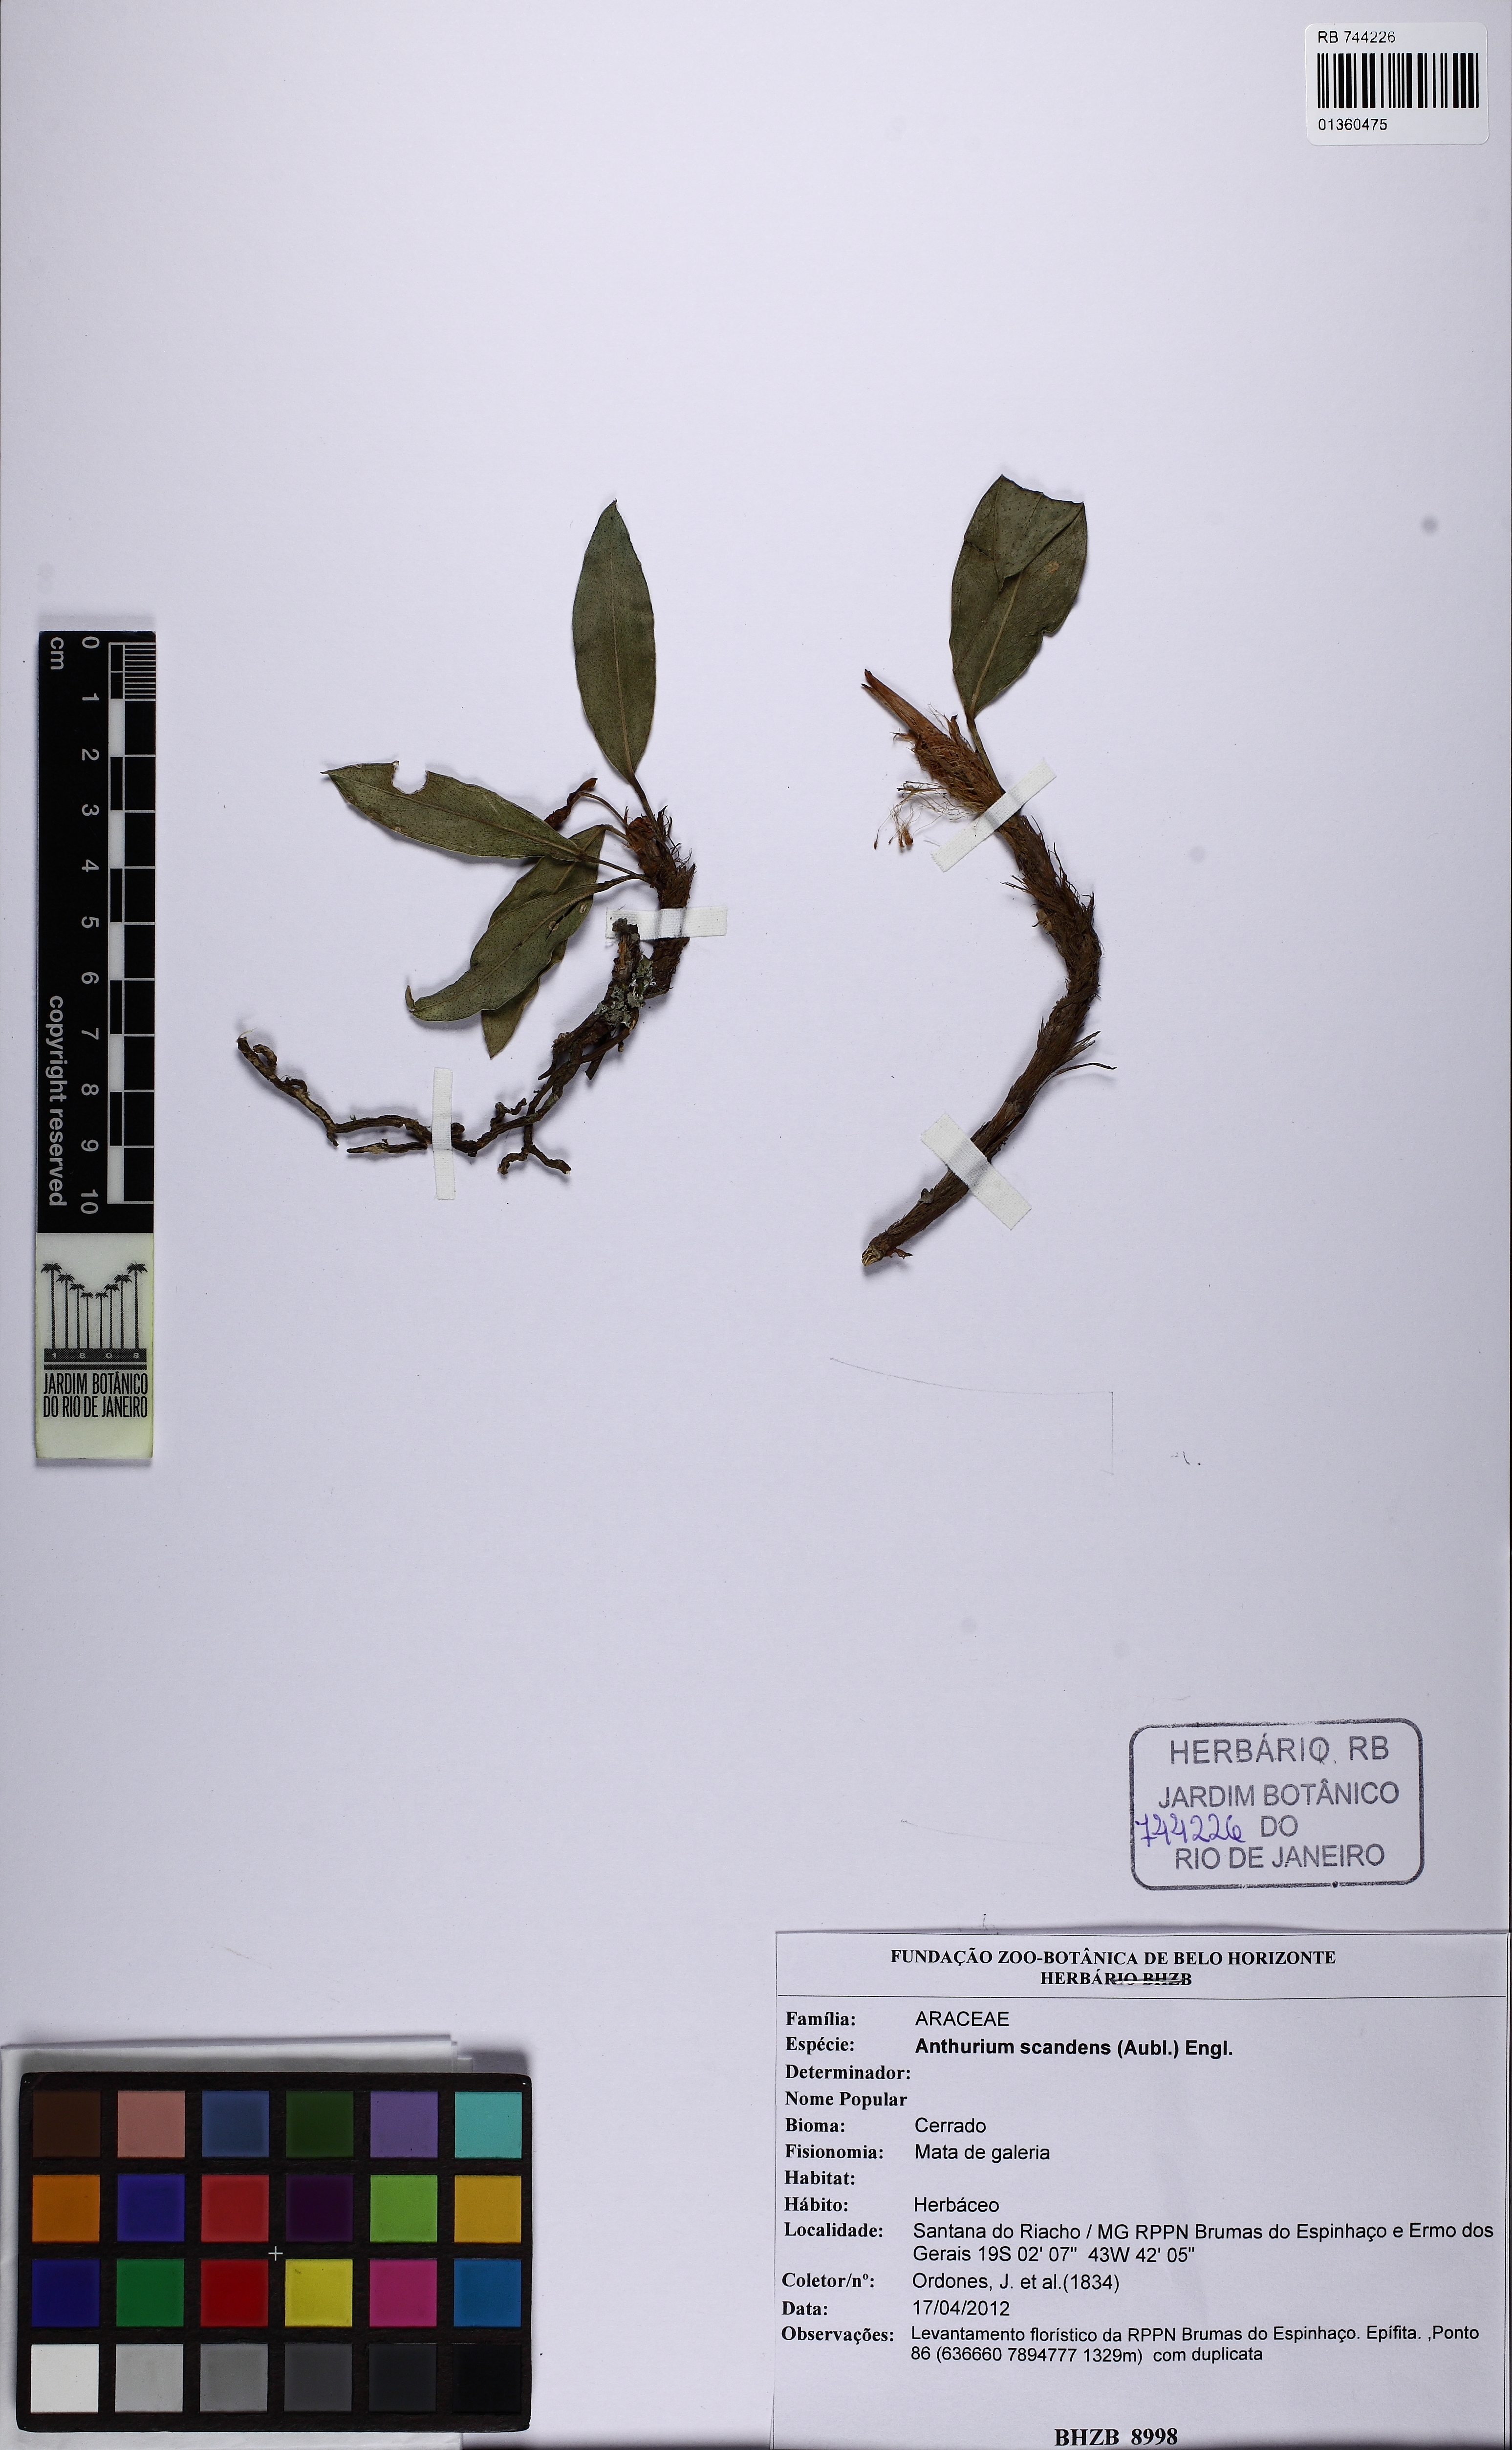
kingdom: Plantae
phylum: Tracheophyta
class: Liliopsida
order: Alismatales
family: Araceae
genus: Anthurium
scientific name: Anthurium scandens
